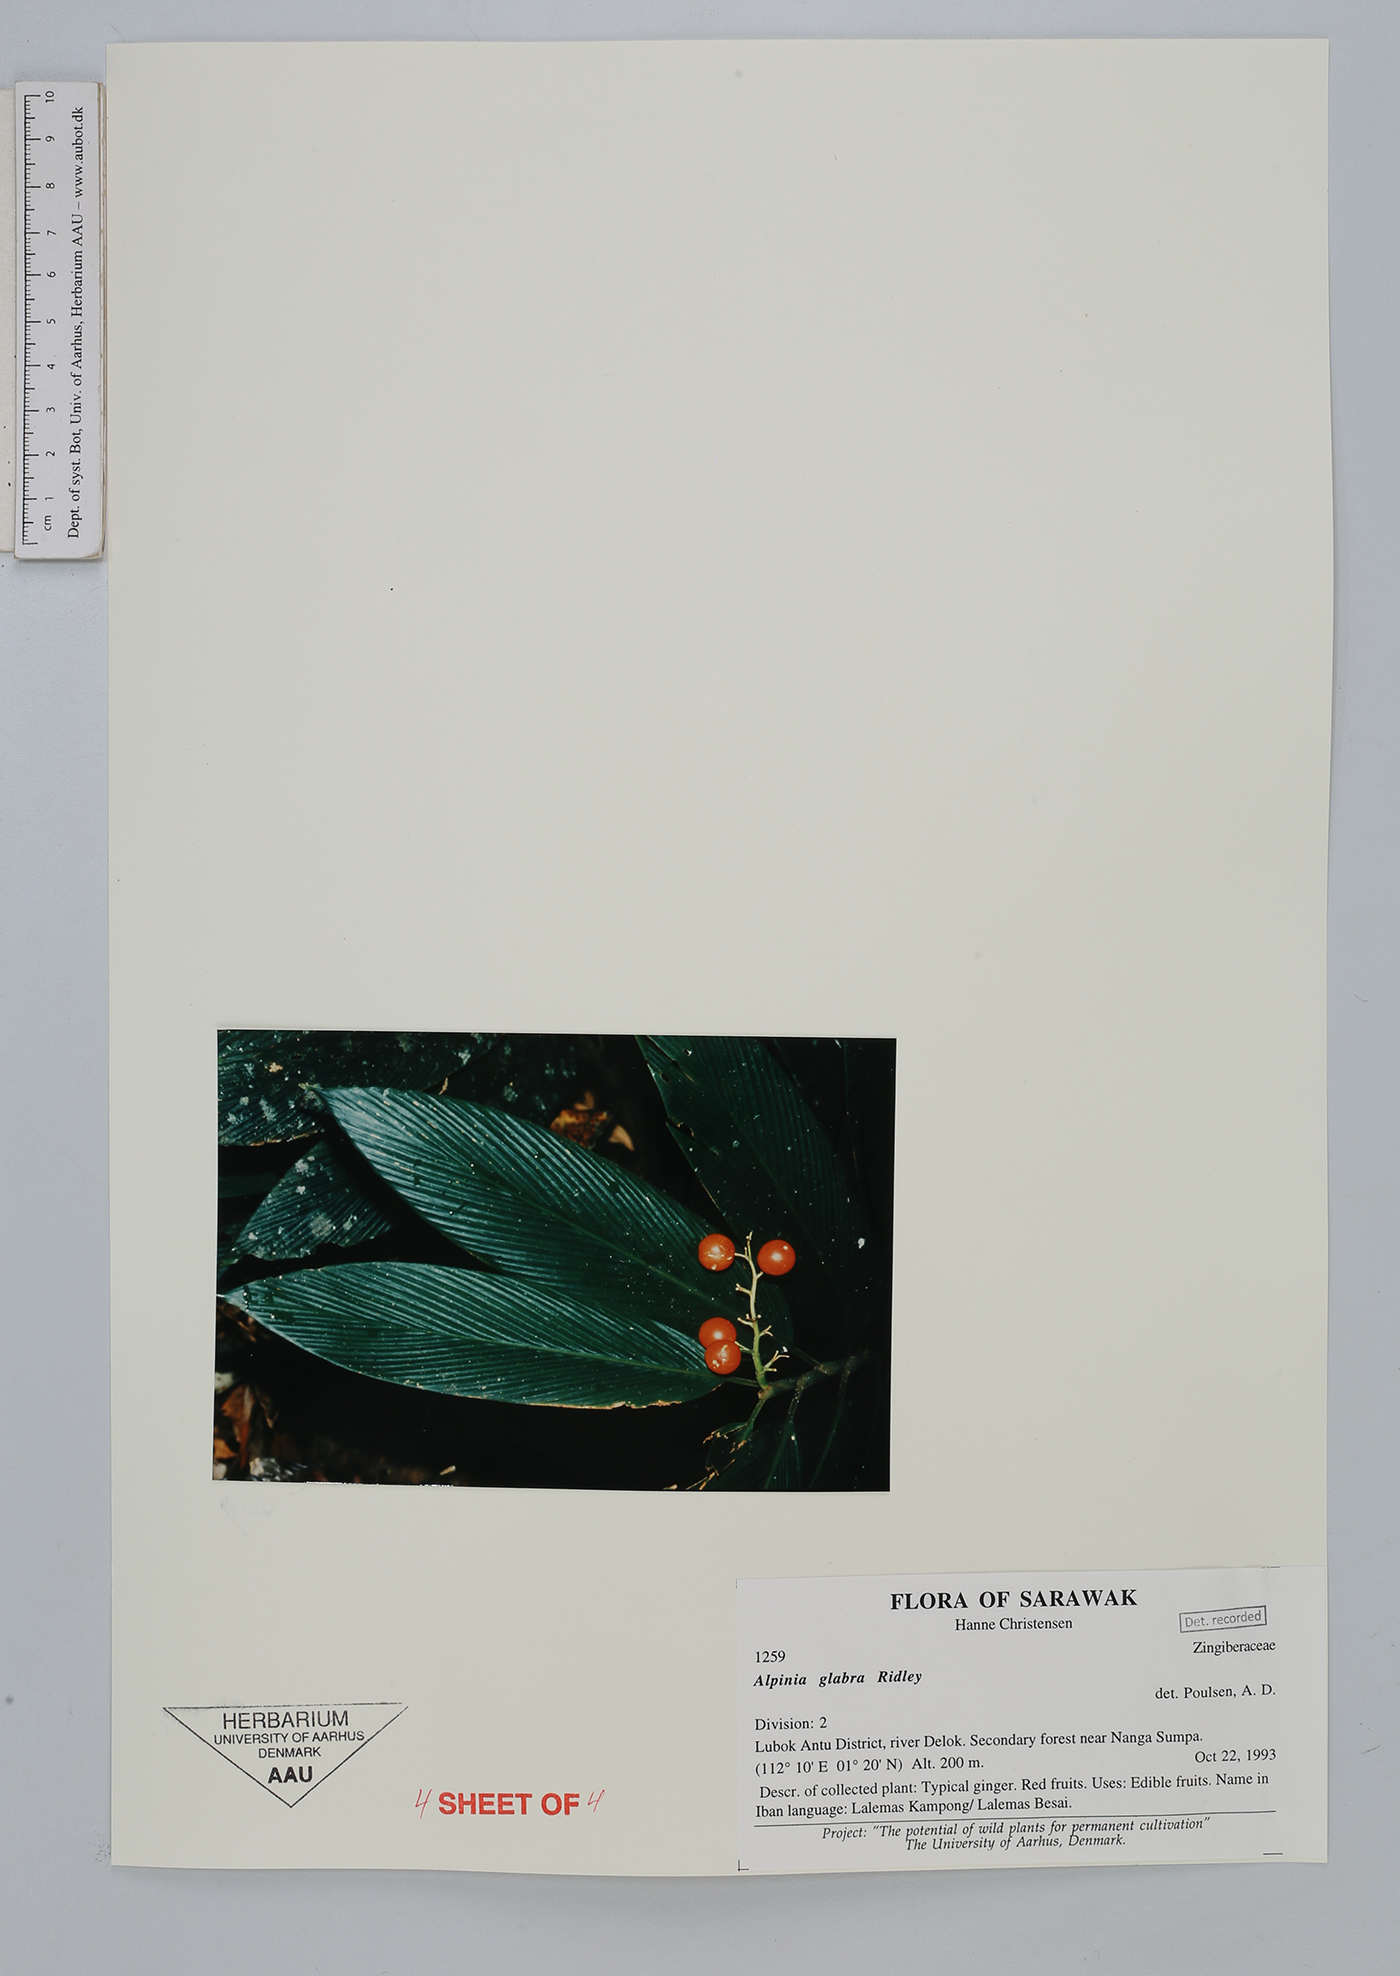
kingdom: Plantae
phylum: Tracheophyta
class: Liliopsida
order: Zingiberales
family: Zingiberaceae
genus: Alpinia
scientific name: Alpinia glabra
